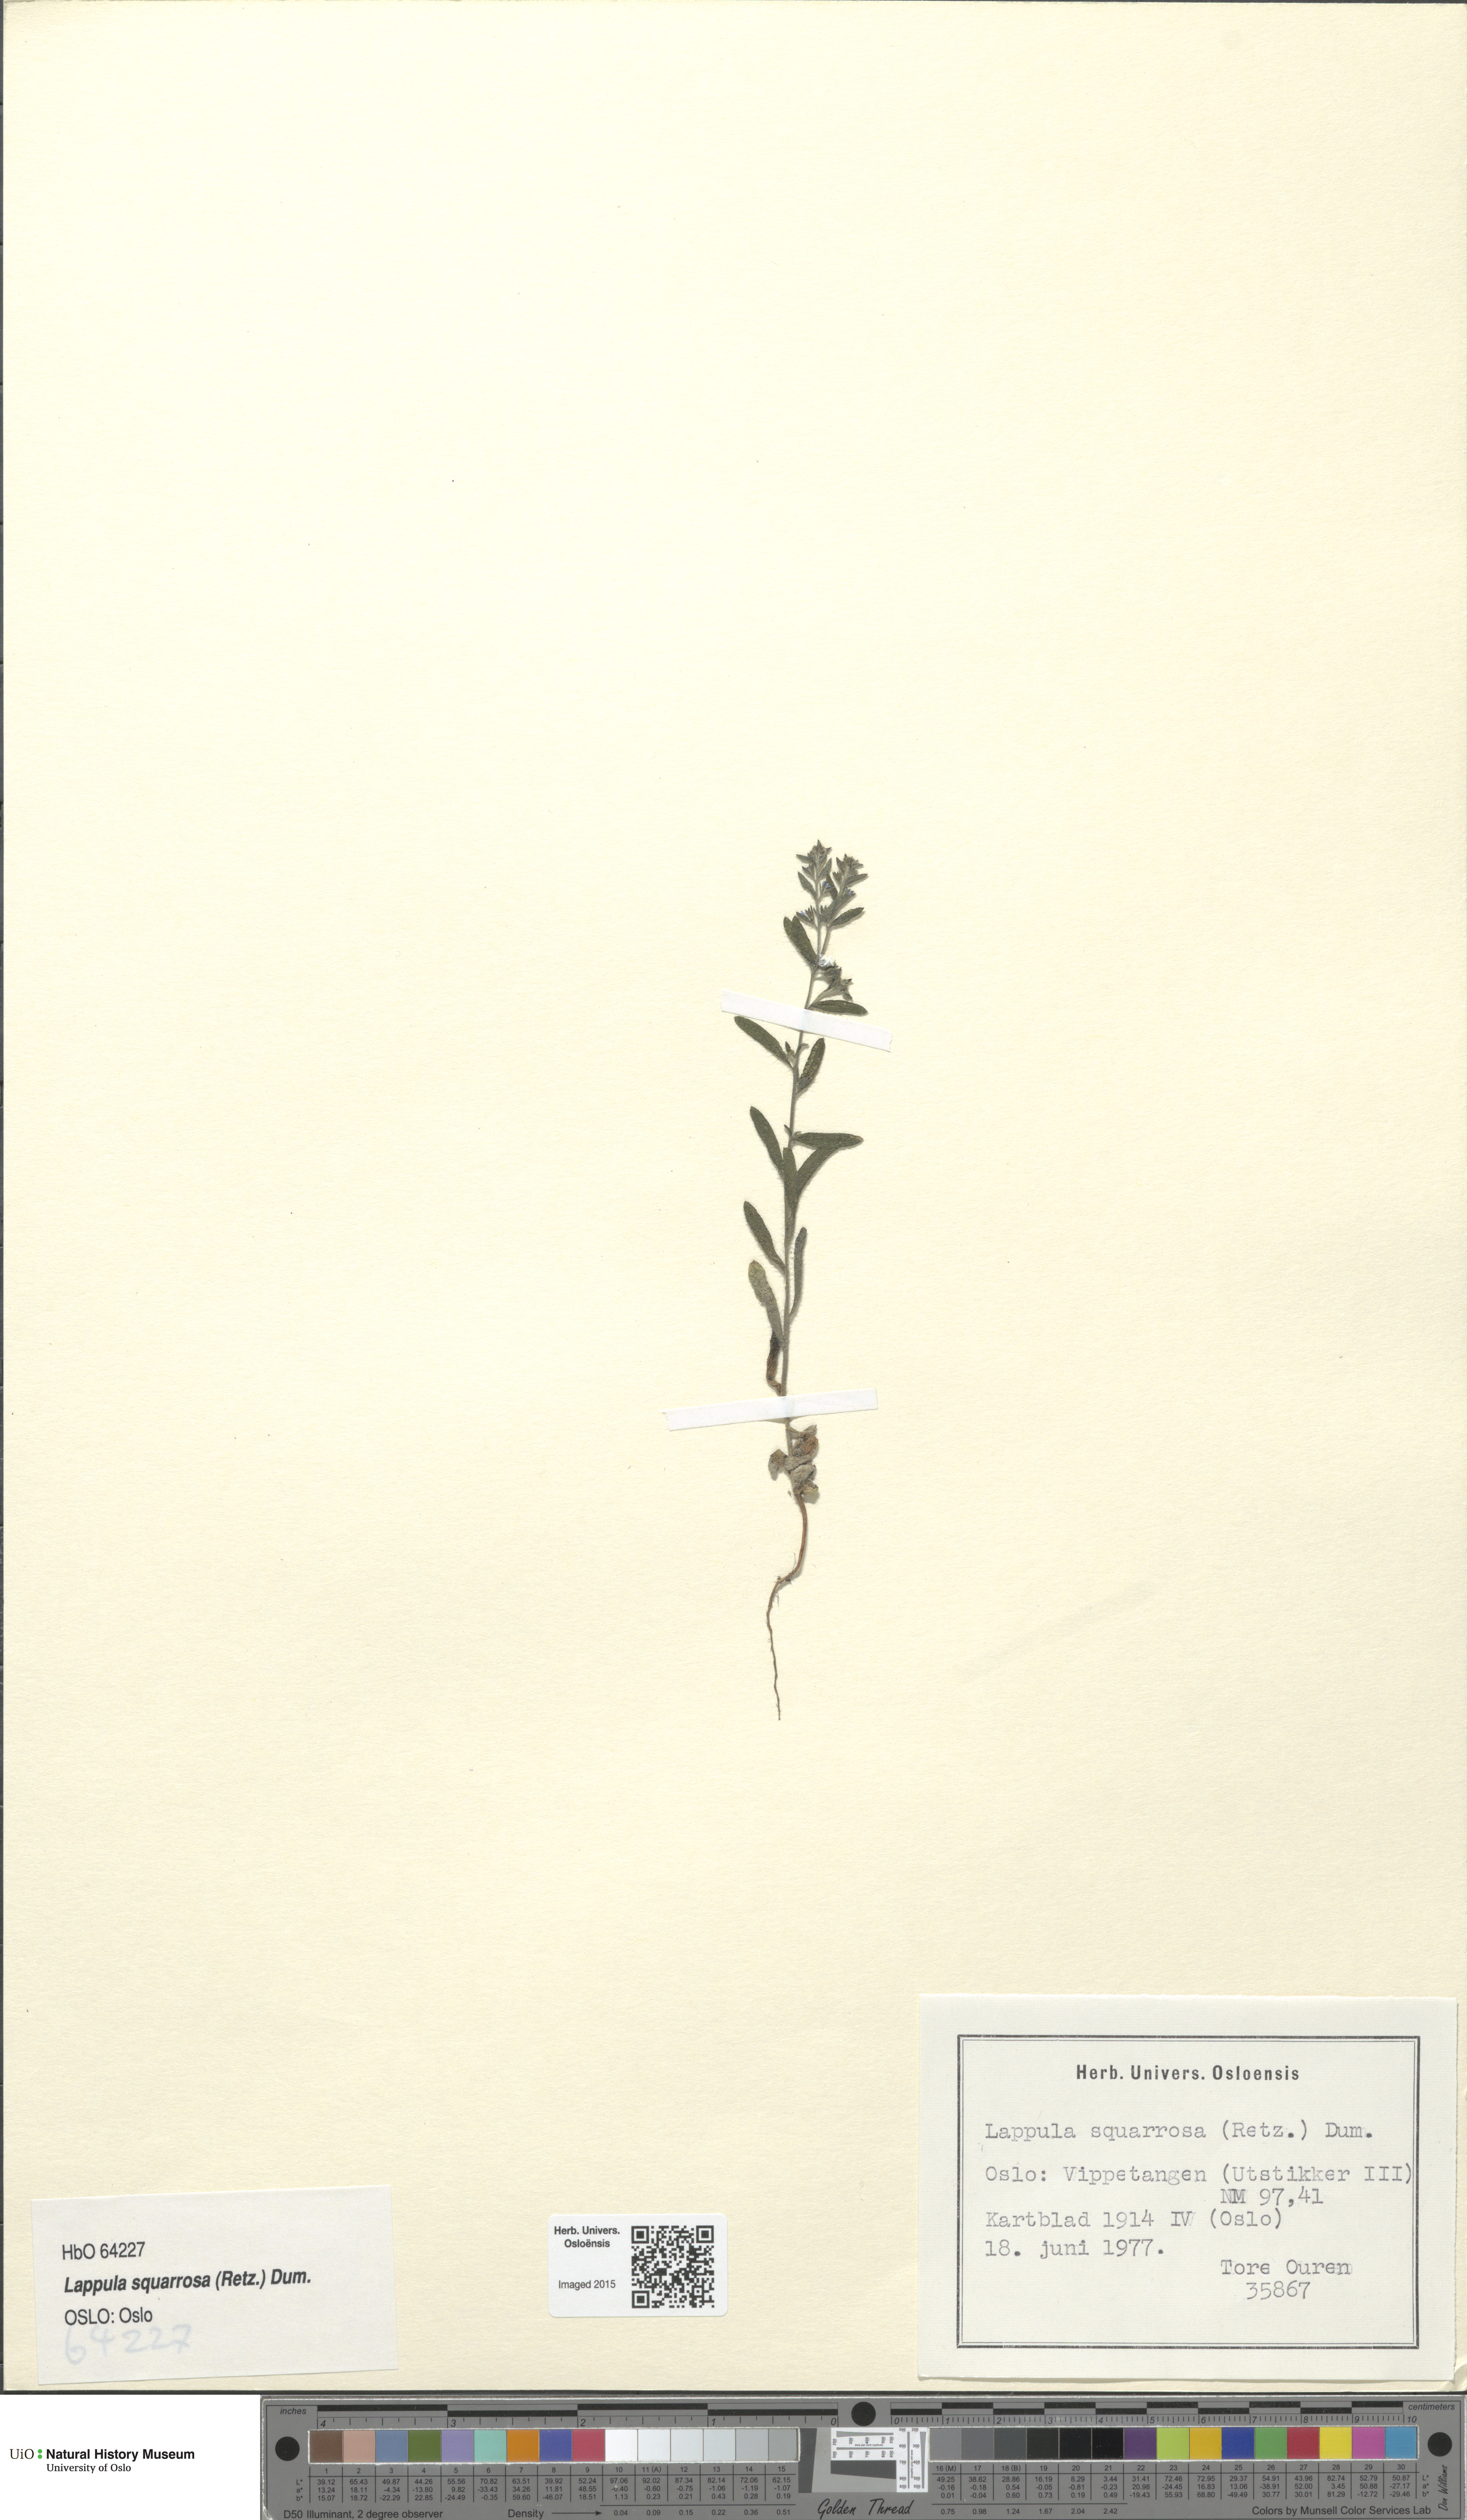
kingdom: Plantae
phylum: Tracheophyta
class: Magnoliopsida
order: Boraginales
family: Boraginaceae
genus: Lappula
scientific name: Lappula squarrosa
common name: European stickseed
